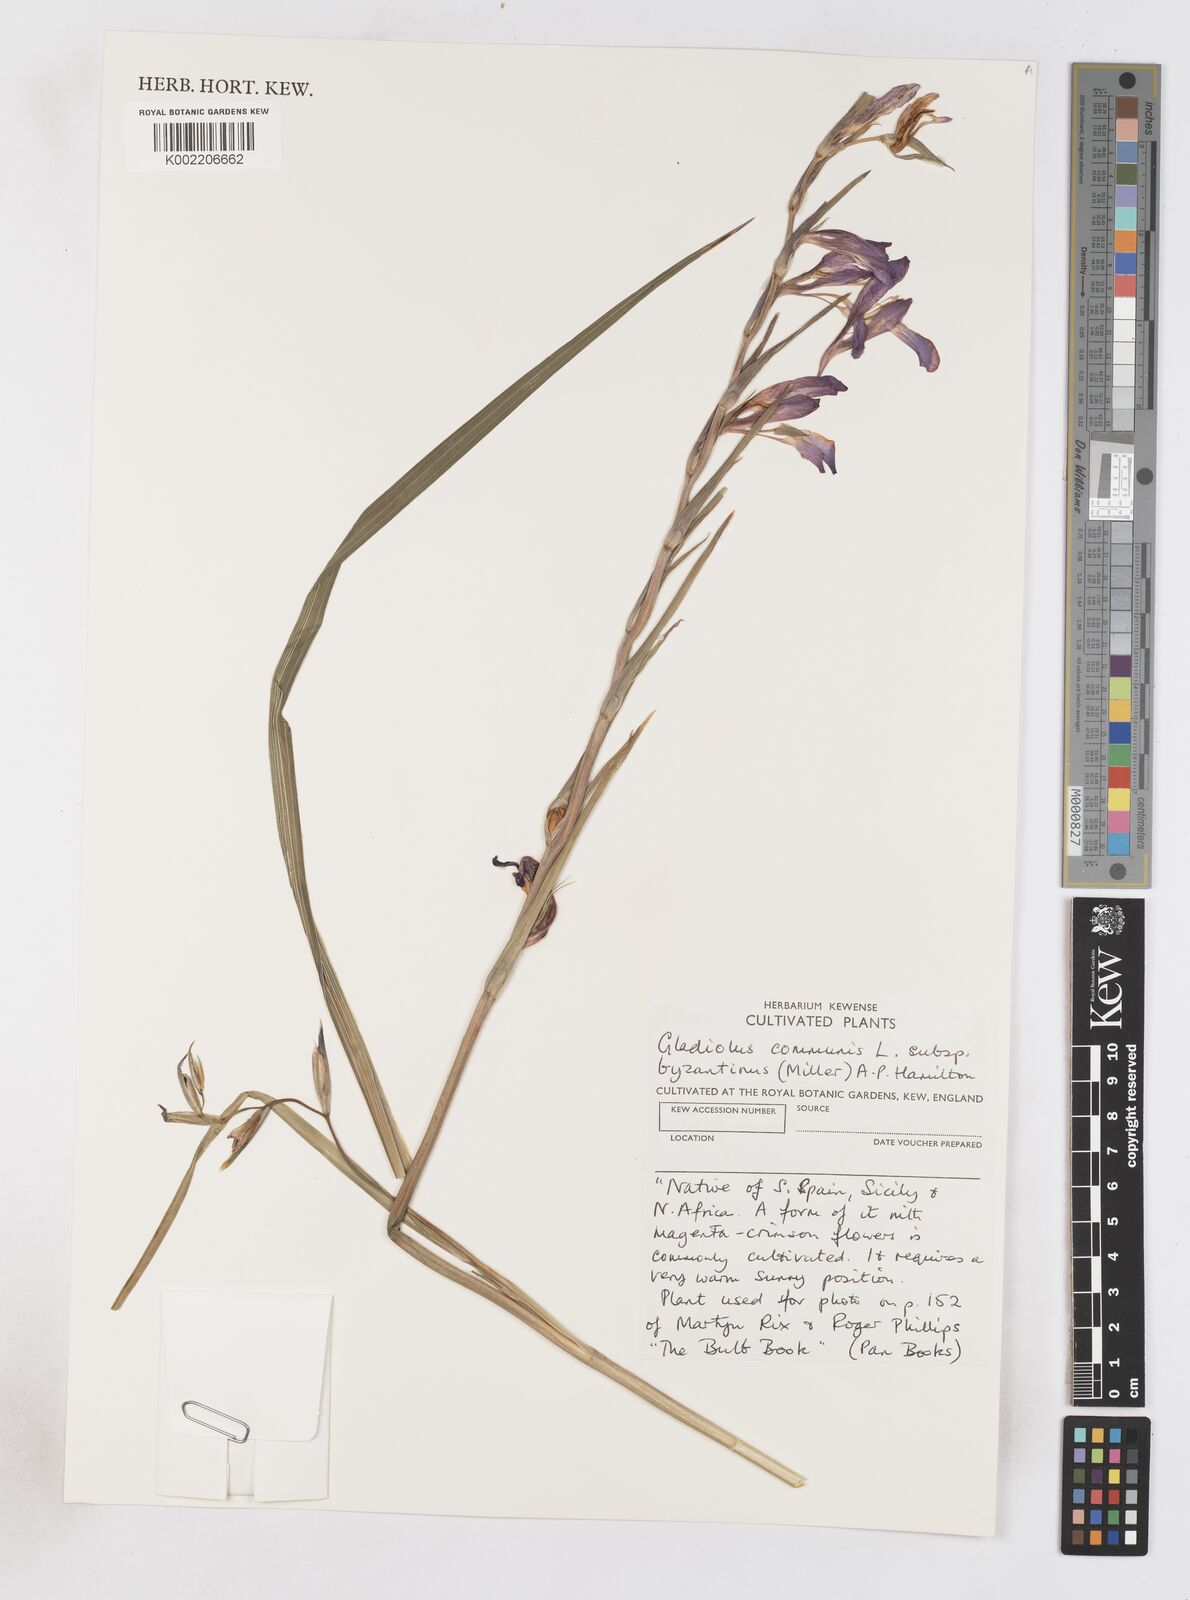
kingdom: Plantae
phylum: Tracheophyta
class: Liliopsida
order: Asparagales
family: Iridaceae
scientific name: Iridaceae
